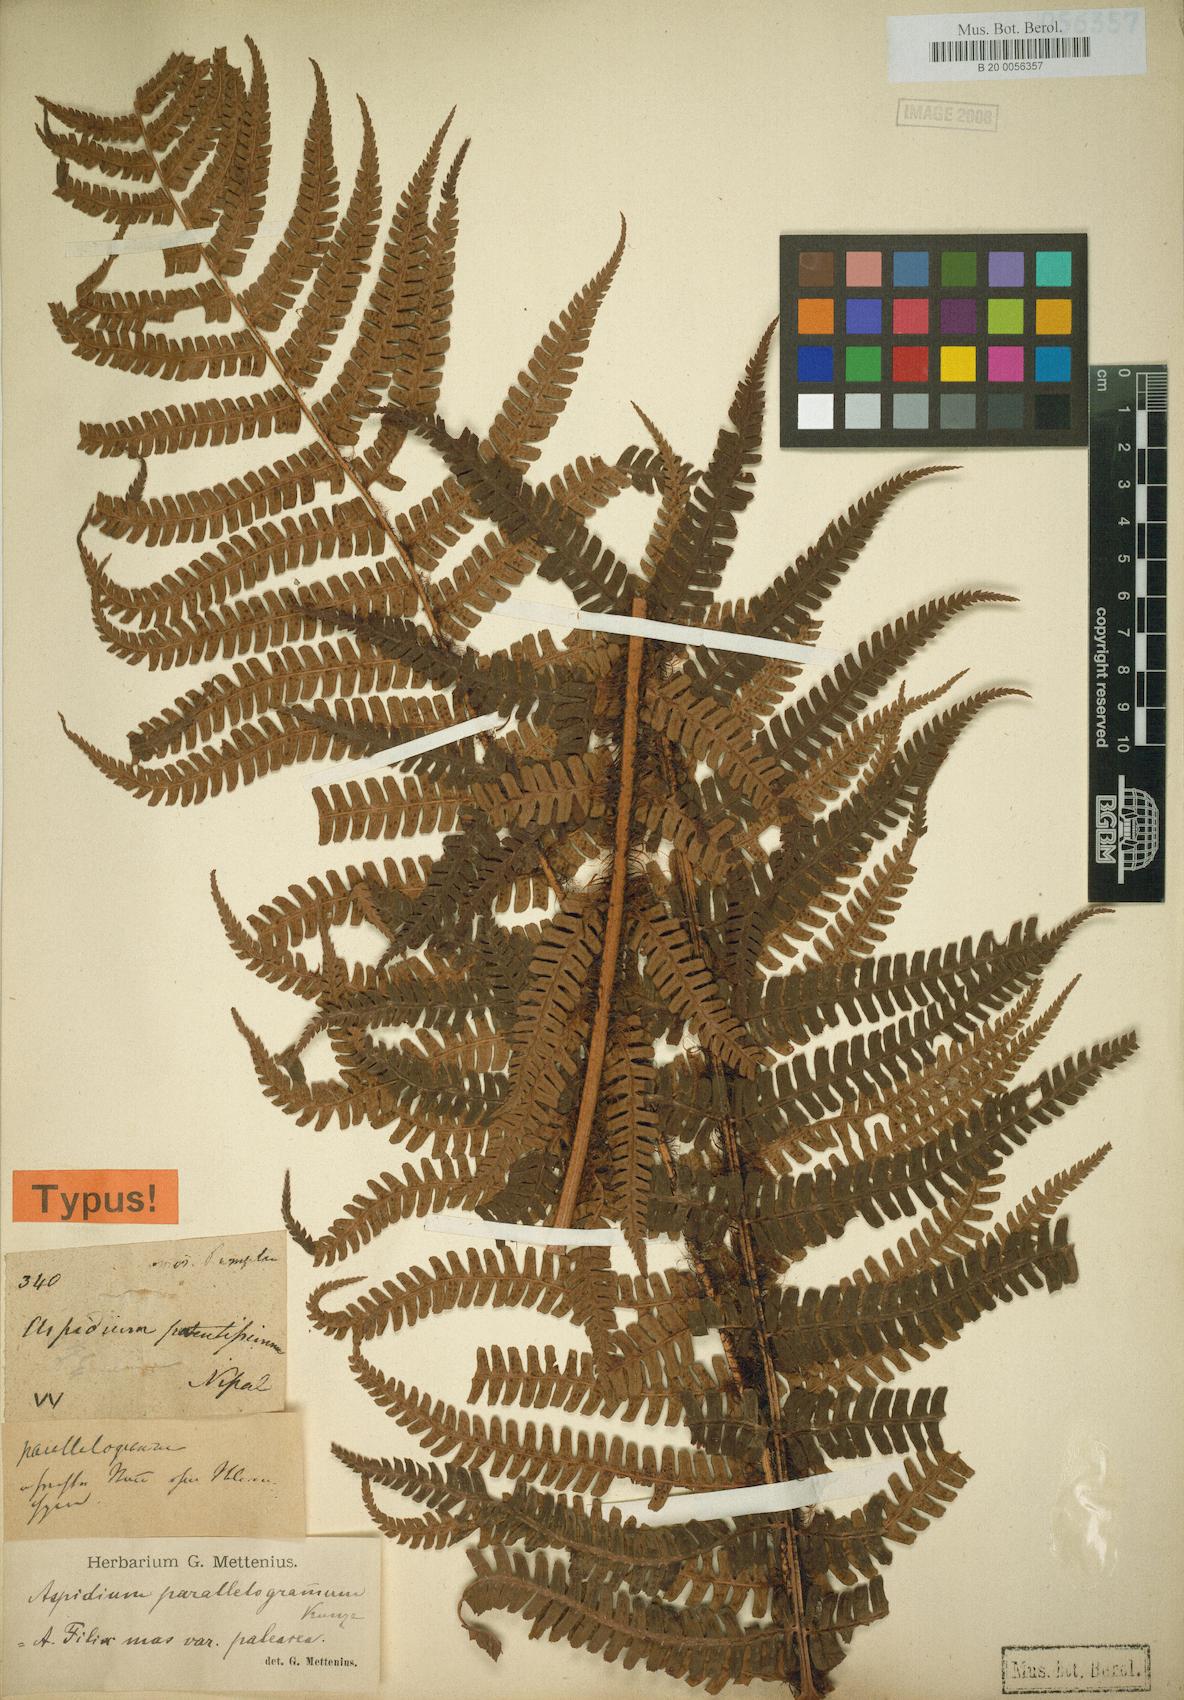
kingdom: Plantae
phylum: Tracheophyta
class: Polypodiopsida
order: Polypodiales
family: Dryopteridaceae
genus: Dryopteris
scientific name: Dryopteris wallichiana
